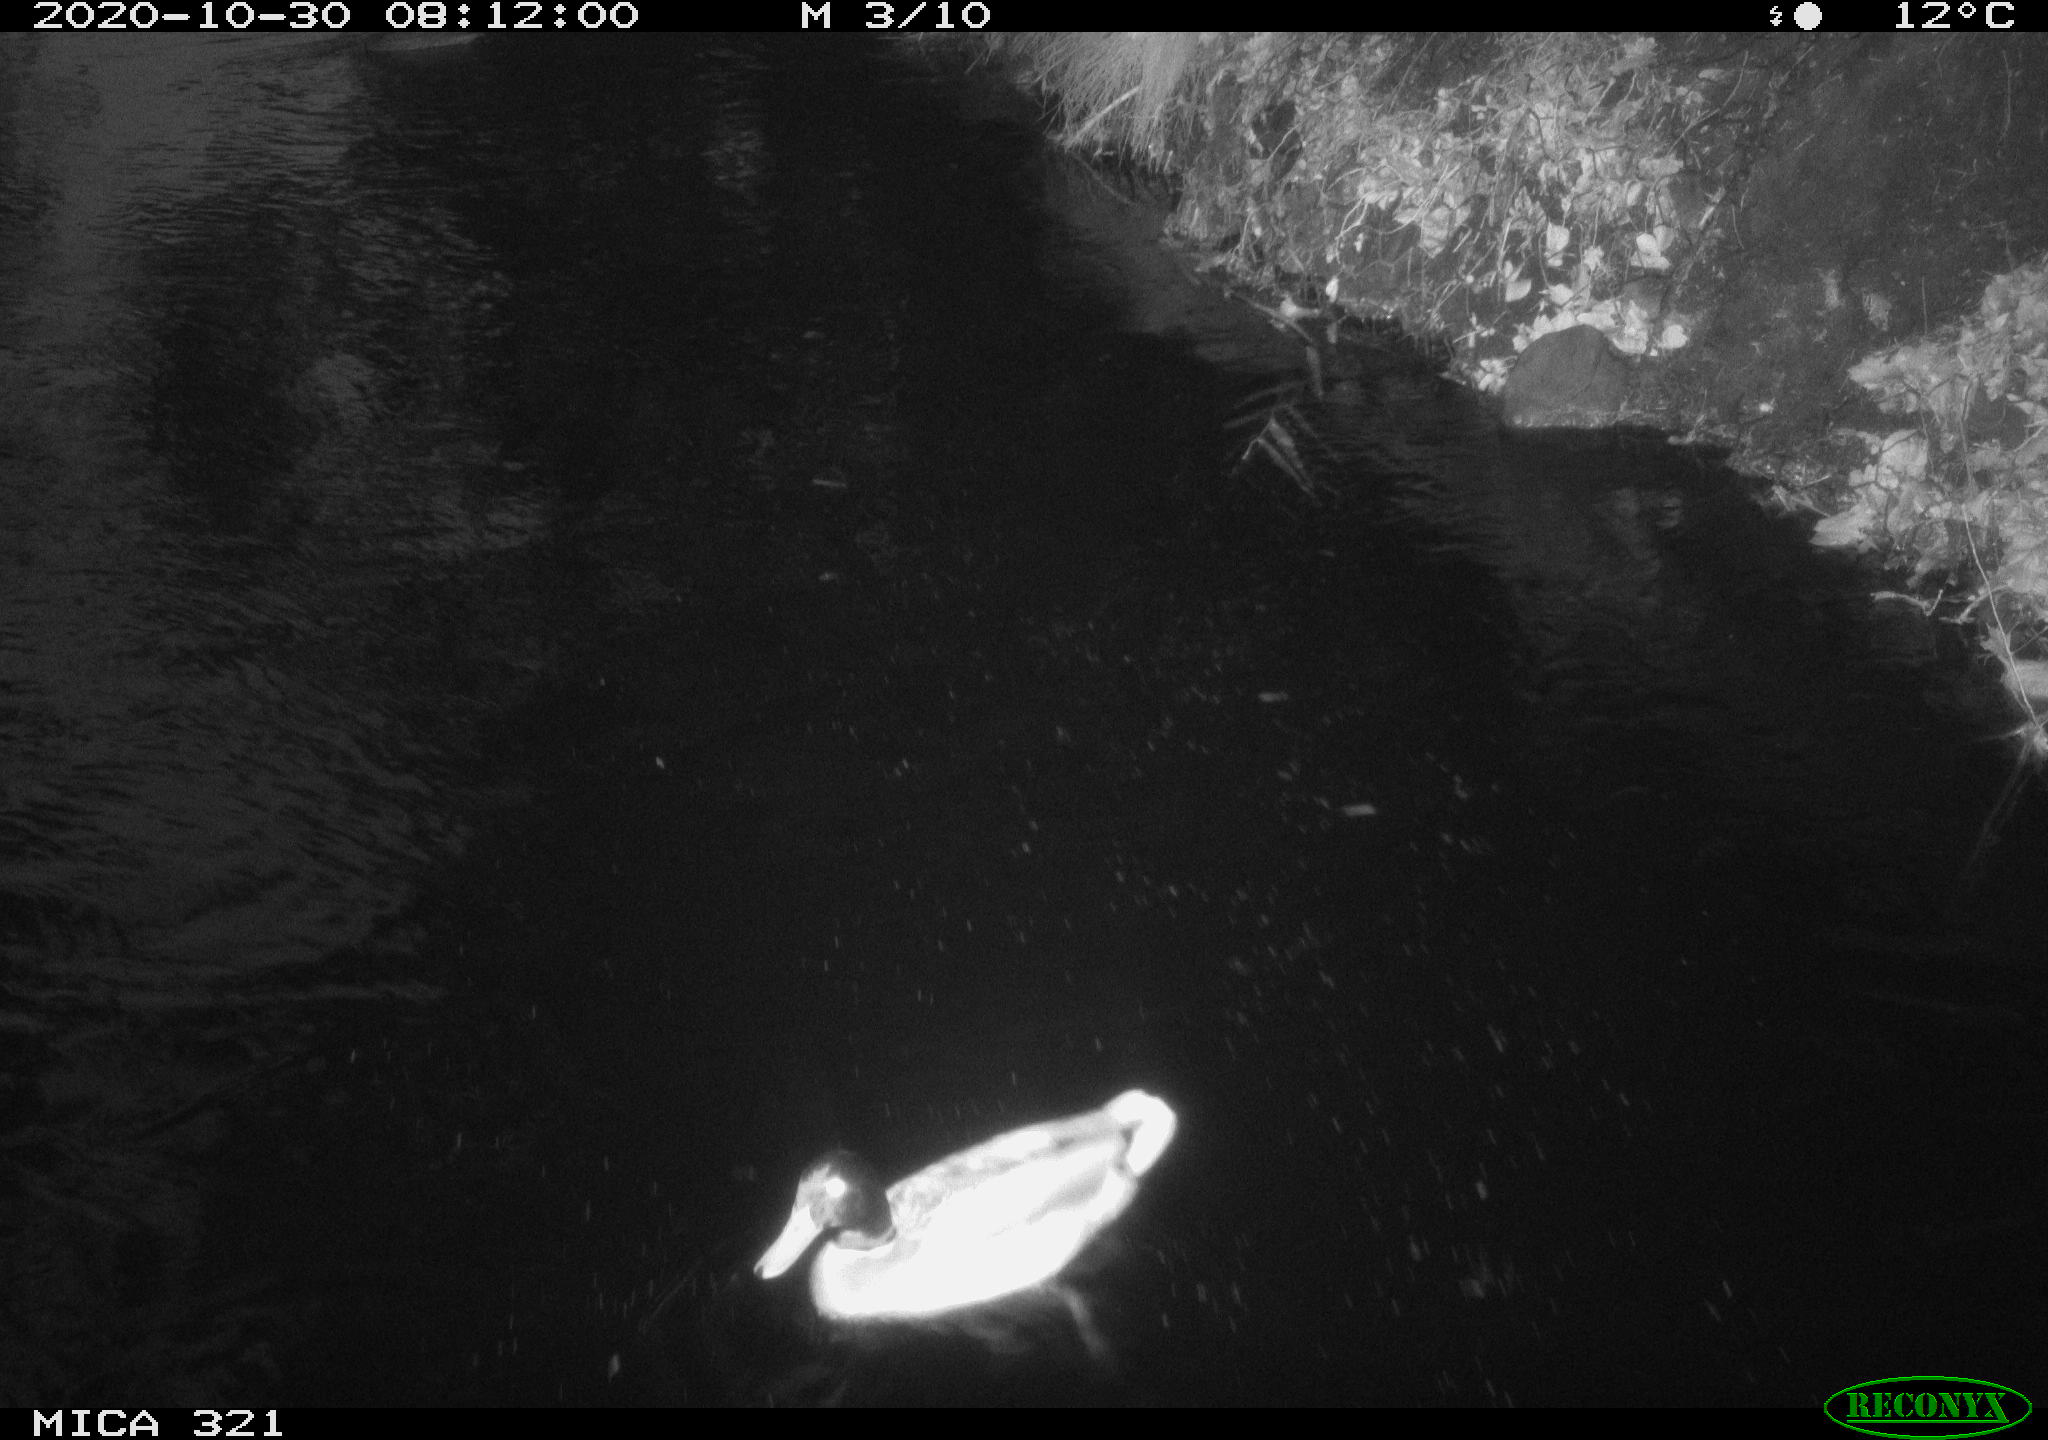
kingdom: Animalia
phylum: Chordata
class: Aves
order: Anseriformes
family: Anatidae
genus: Anas
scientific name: Anas platyrhynchos
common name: Mallard
